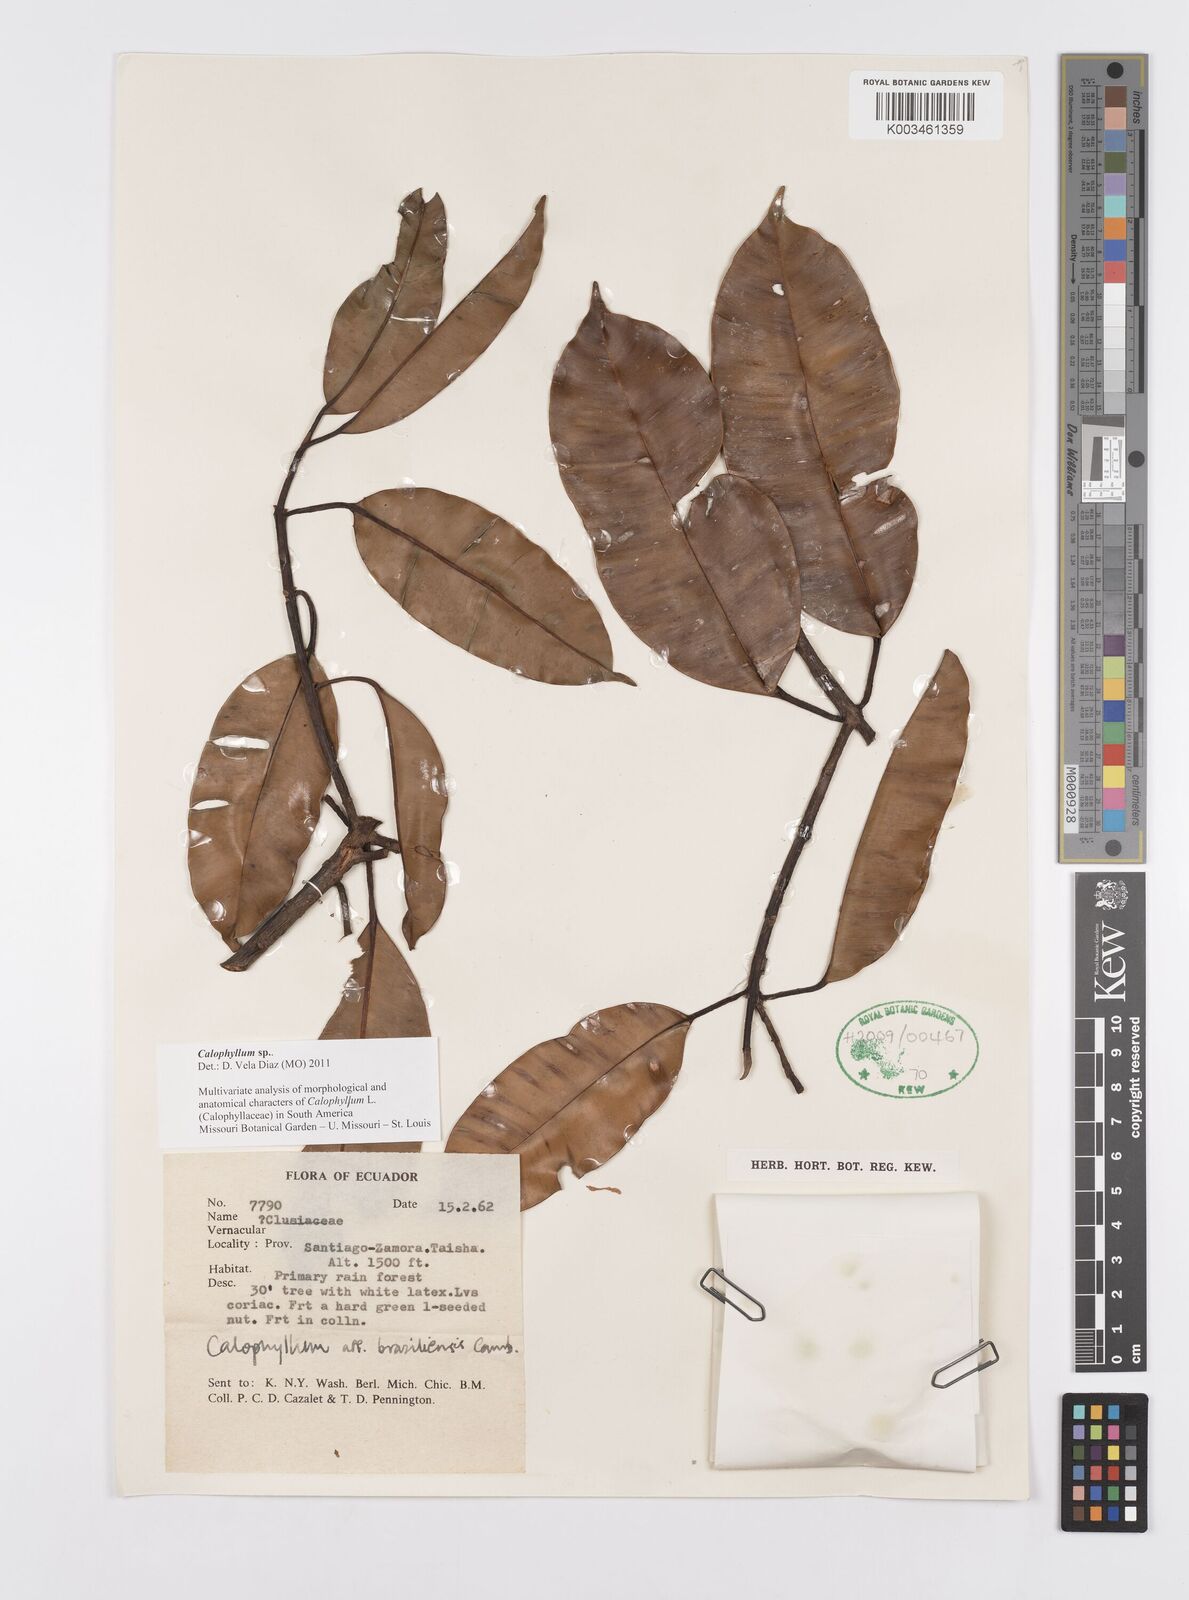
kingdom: Plantae
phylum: Tracheophyta
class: Magnoliopsida
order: Malpighiales
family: Calophyllaceae
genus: Calophyllum
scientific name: Calophyllum
